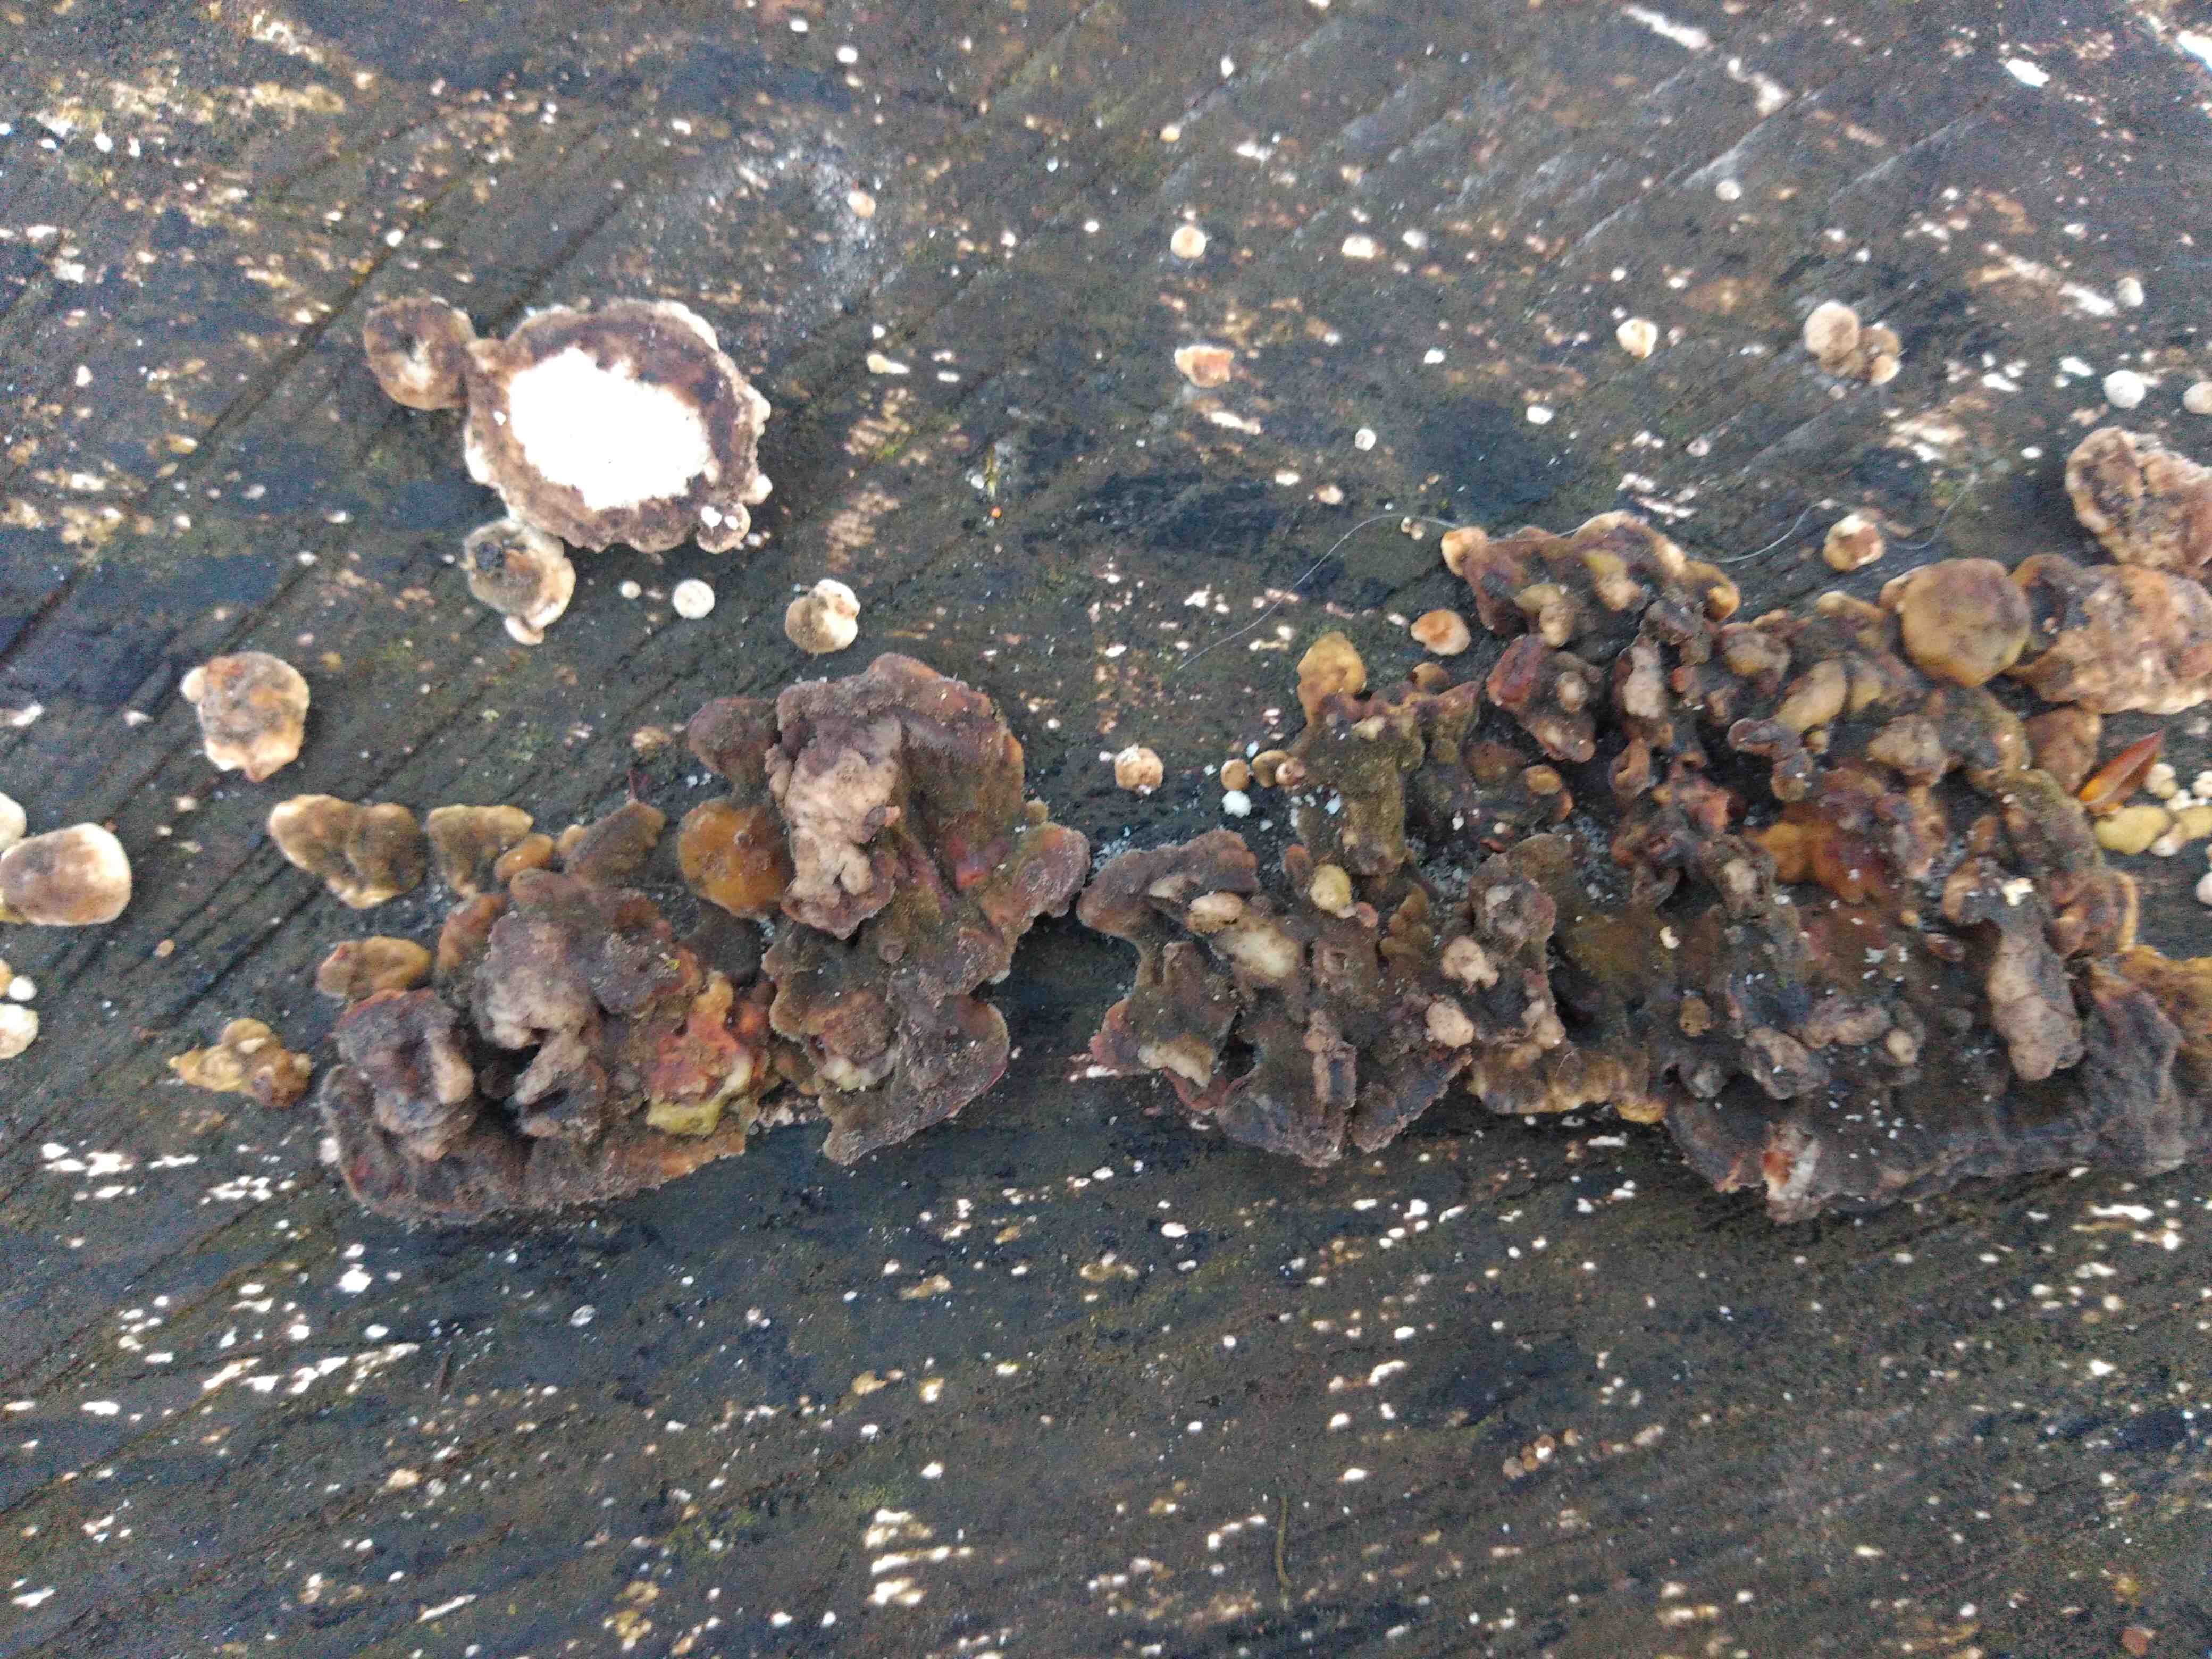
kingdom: Fungi
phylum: Basidiomycota
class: Agaricomycetes
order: Polyporales
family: Polyporaceae
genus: Trametes
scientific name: Trametes
